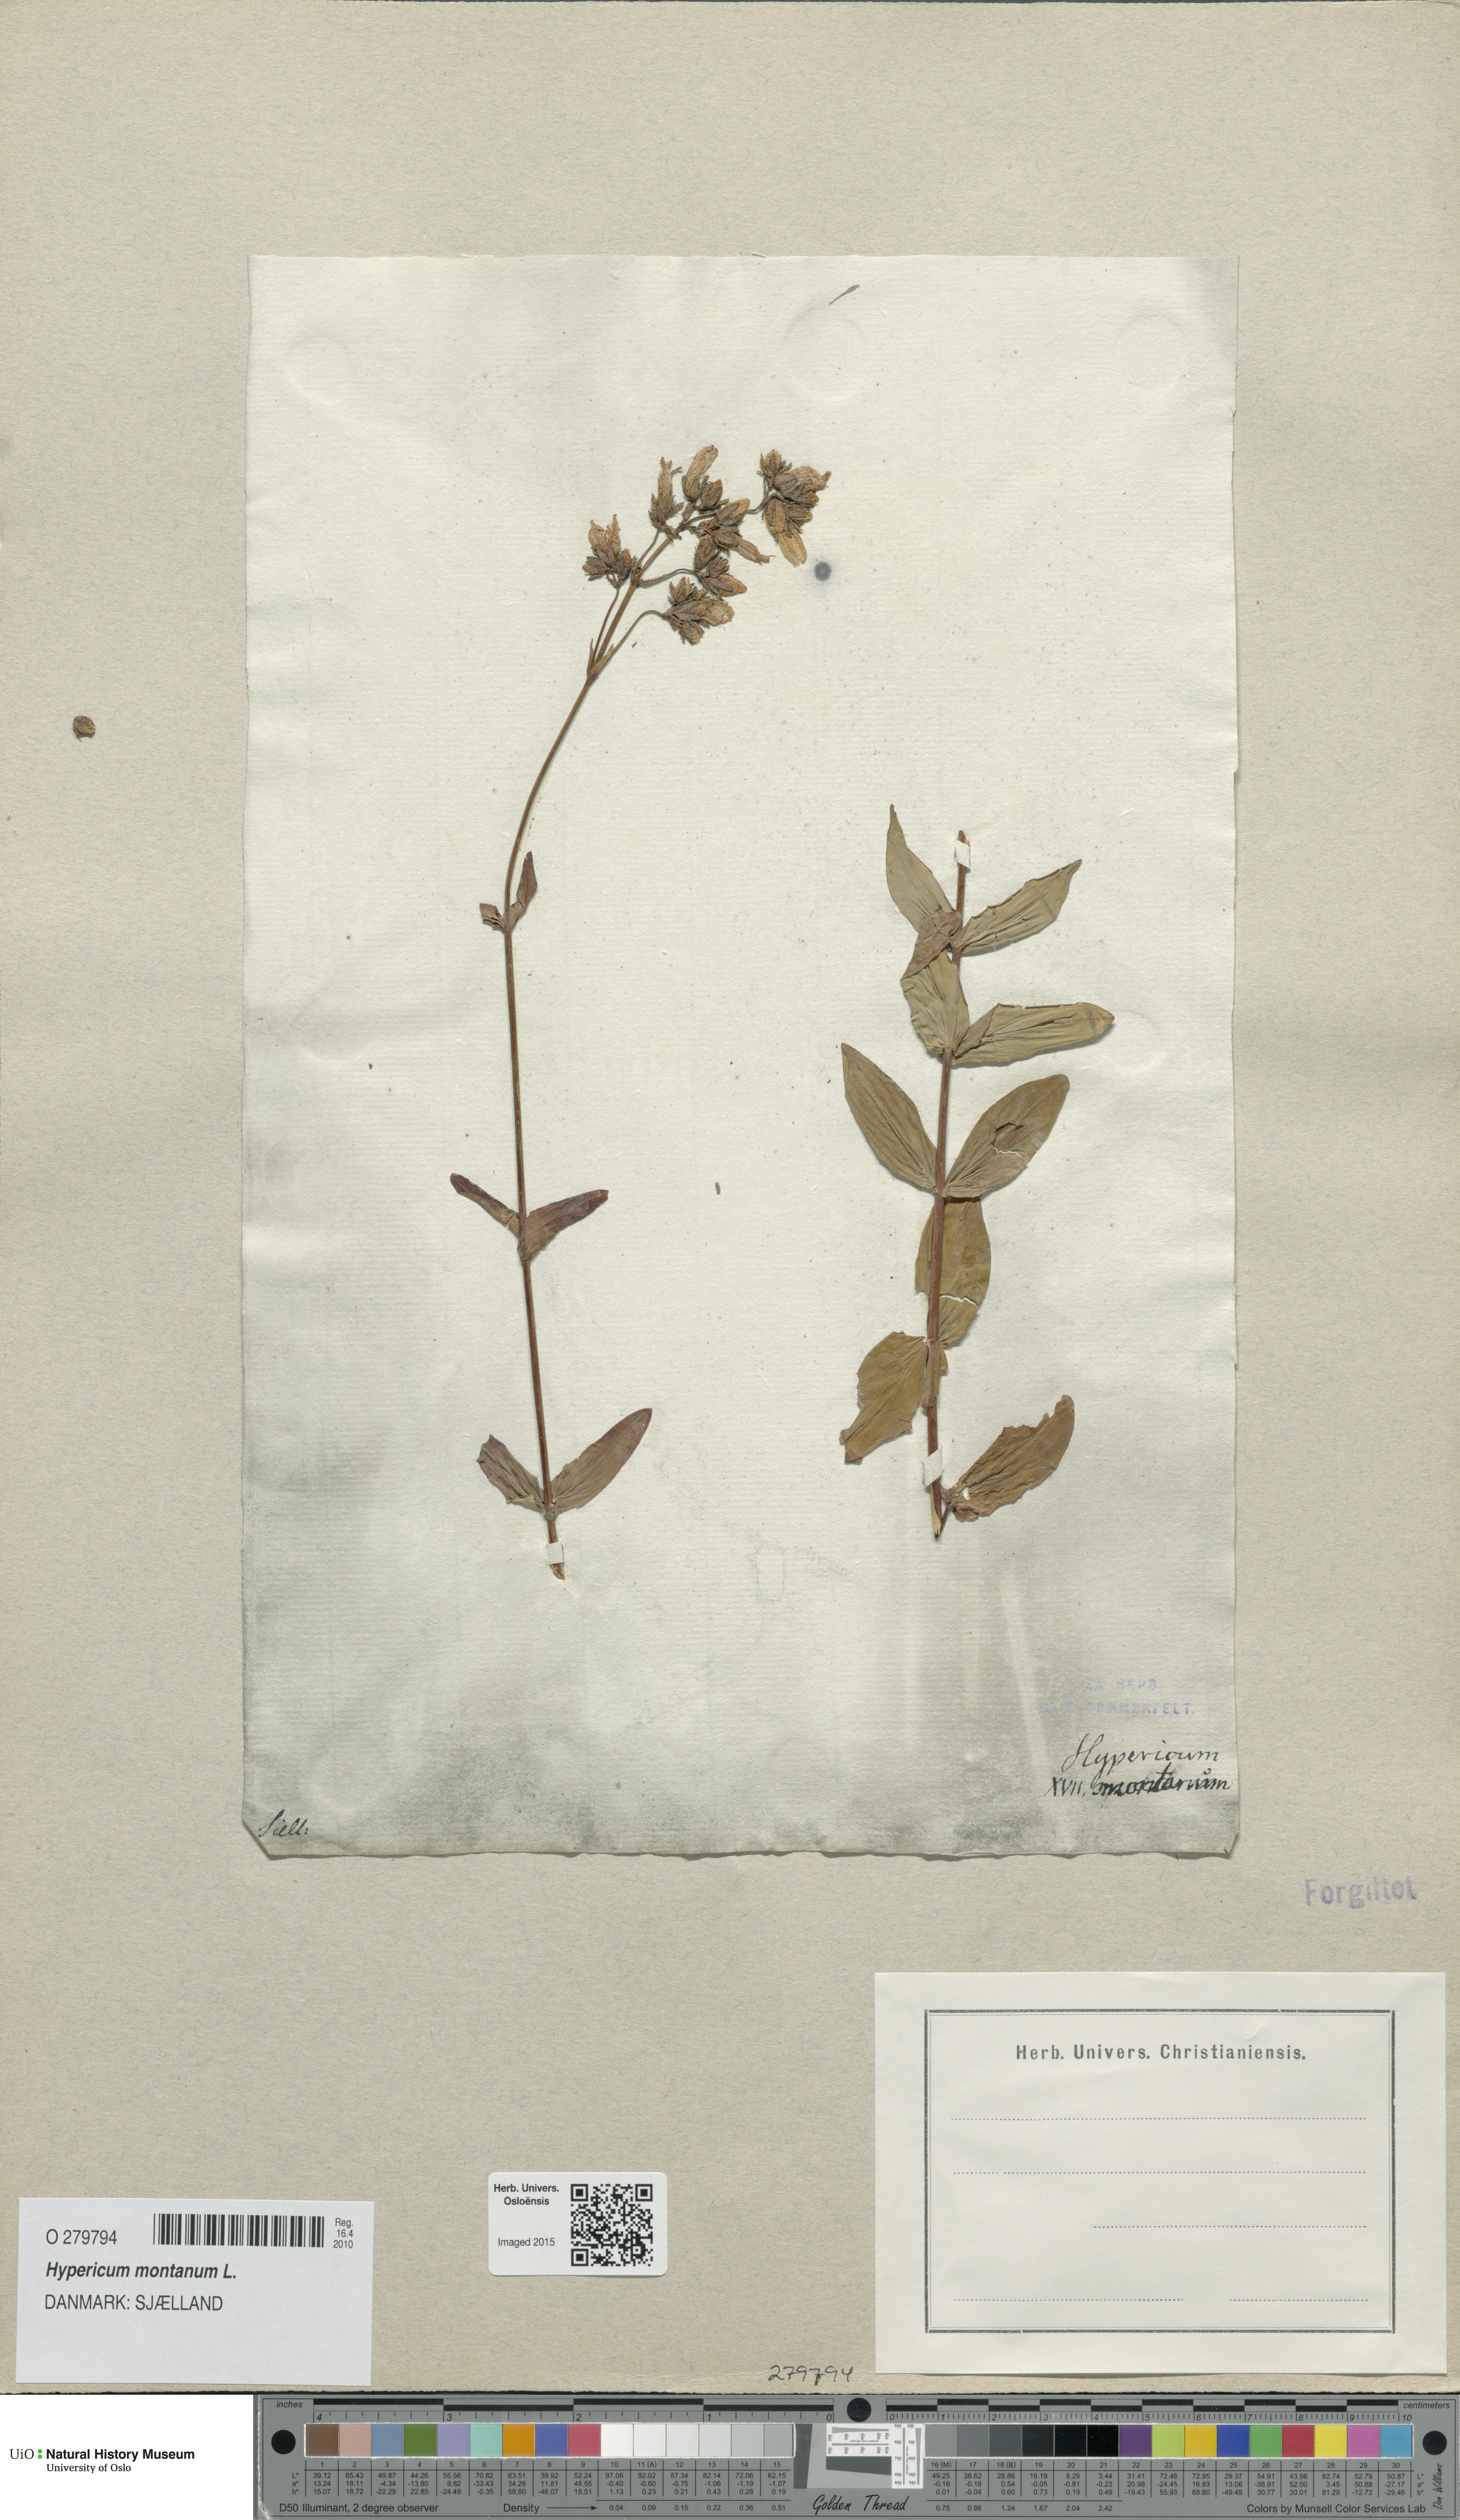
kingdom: Plantae
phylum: Tracheophyta
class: Magnoliopsida
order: Malpighiales
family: Hypericaceae
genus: Hypericum
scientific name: Hypericum montanum
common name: Pale st. john's-wort
